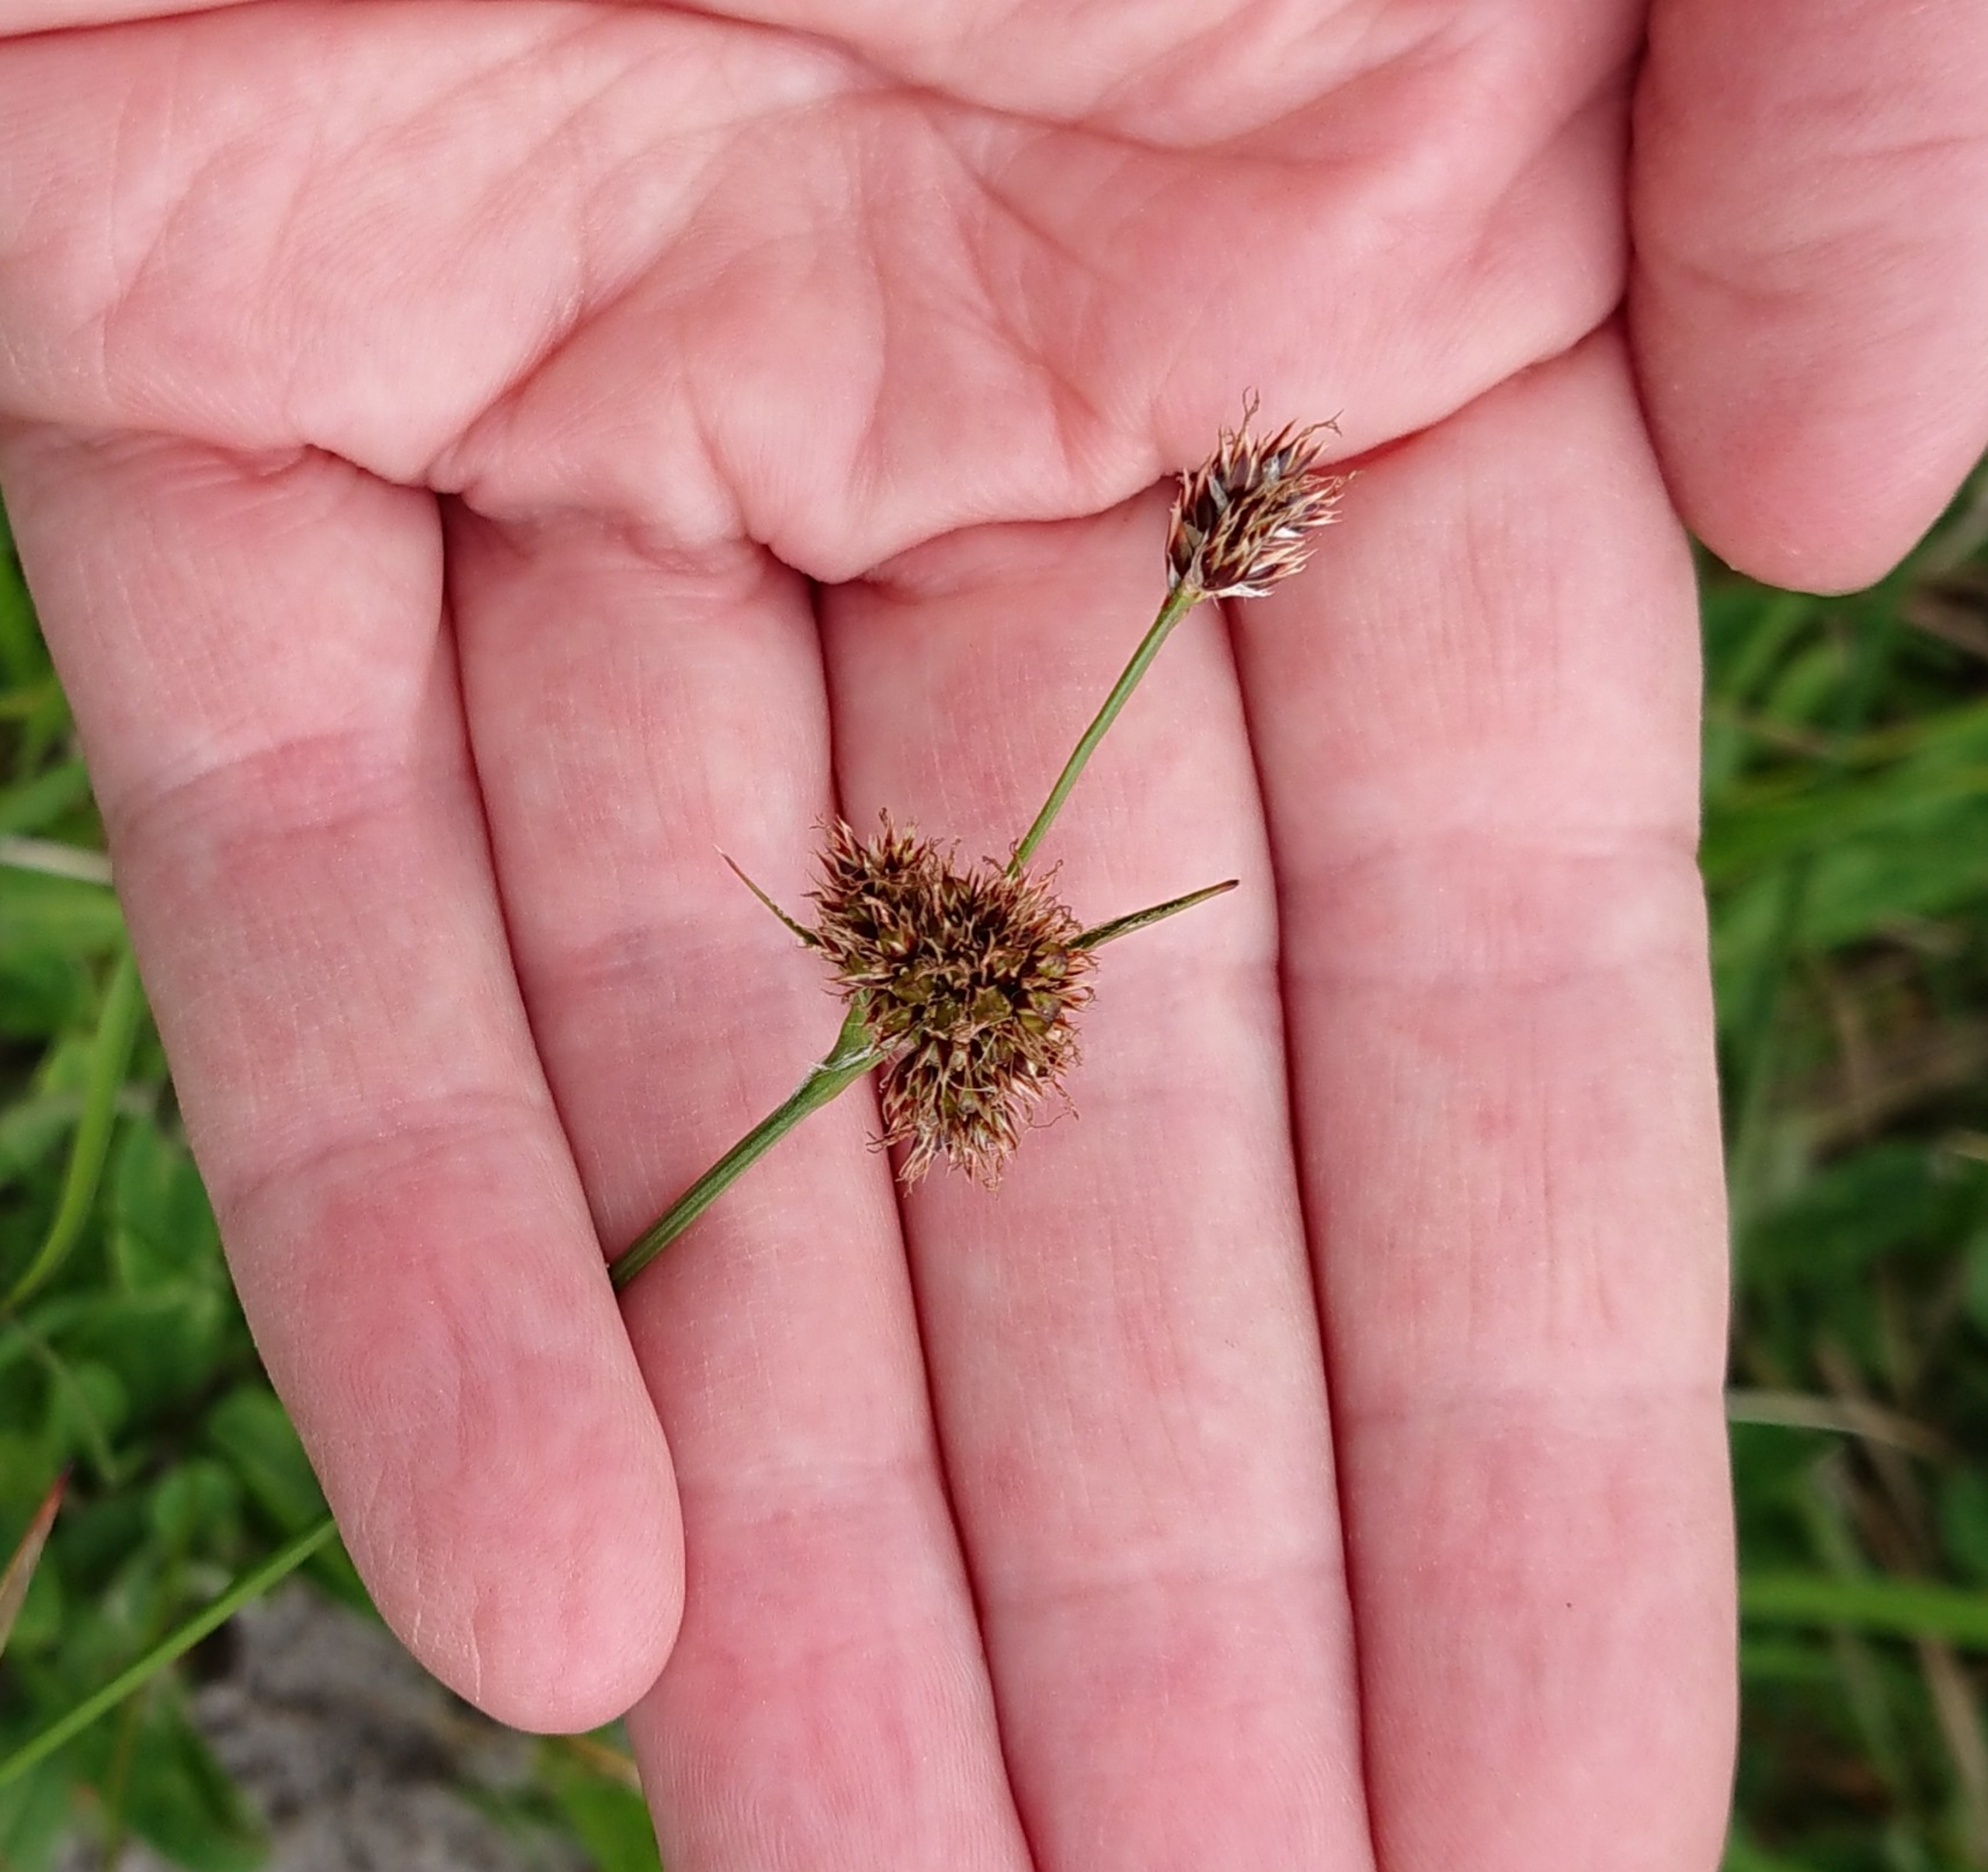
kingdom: Plantae
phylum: Tracheophyta
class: Liliopsida
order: Poales
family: Juncaceae
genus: Luzula
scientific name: Luzula congesta
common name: Hoved-frytle
